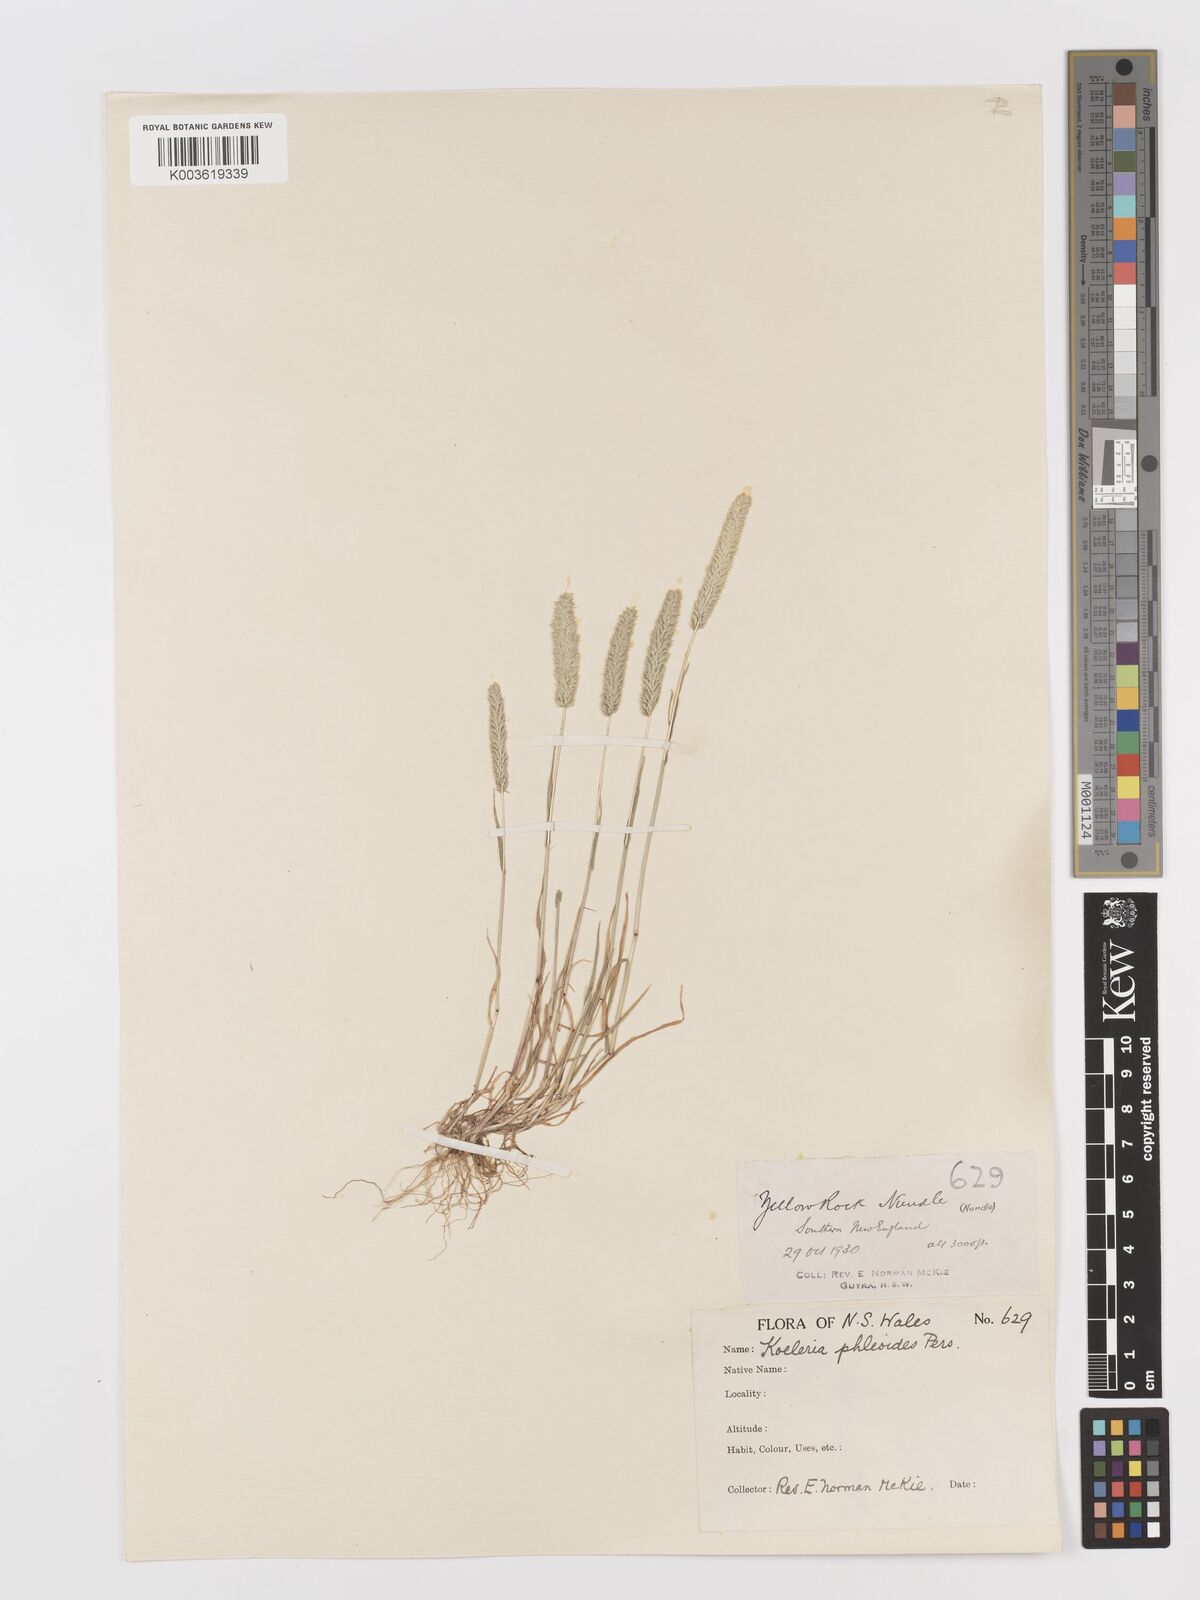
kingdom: Plantae
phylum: Tracheophyta
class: Liliopsida
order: Poales
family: Poaceae
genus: Rostraria
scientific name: Rostraria cristata
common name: Mediterranean hair-grass
